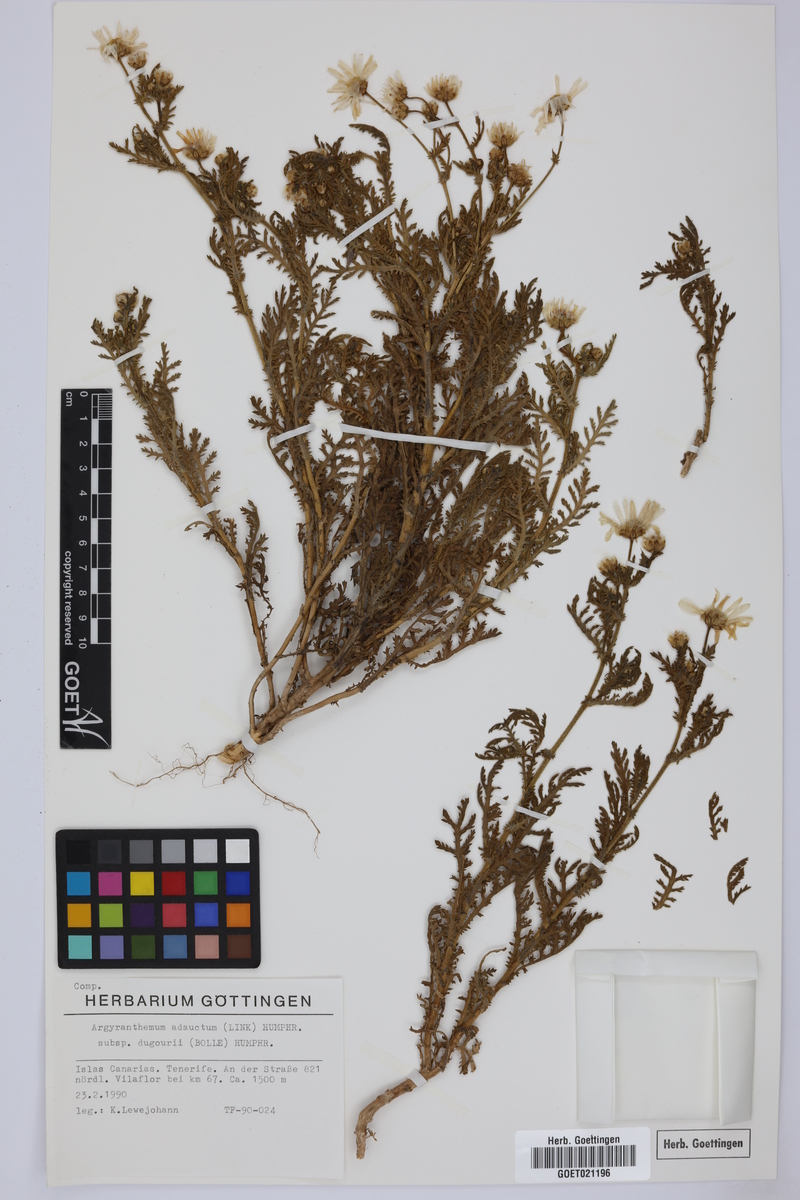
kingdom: Plantae
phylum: Tracheophyta
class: Magnoliopsida
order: Asterales
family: Asteraceae
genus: Argyranthemum
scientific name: Argyranthemum adauctum
